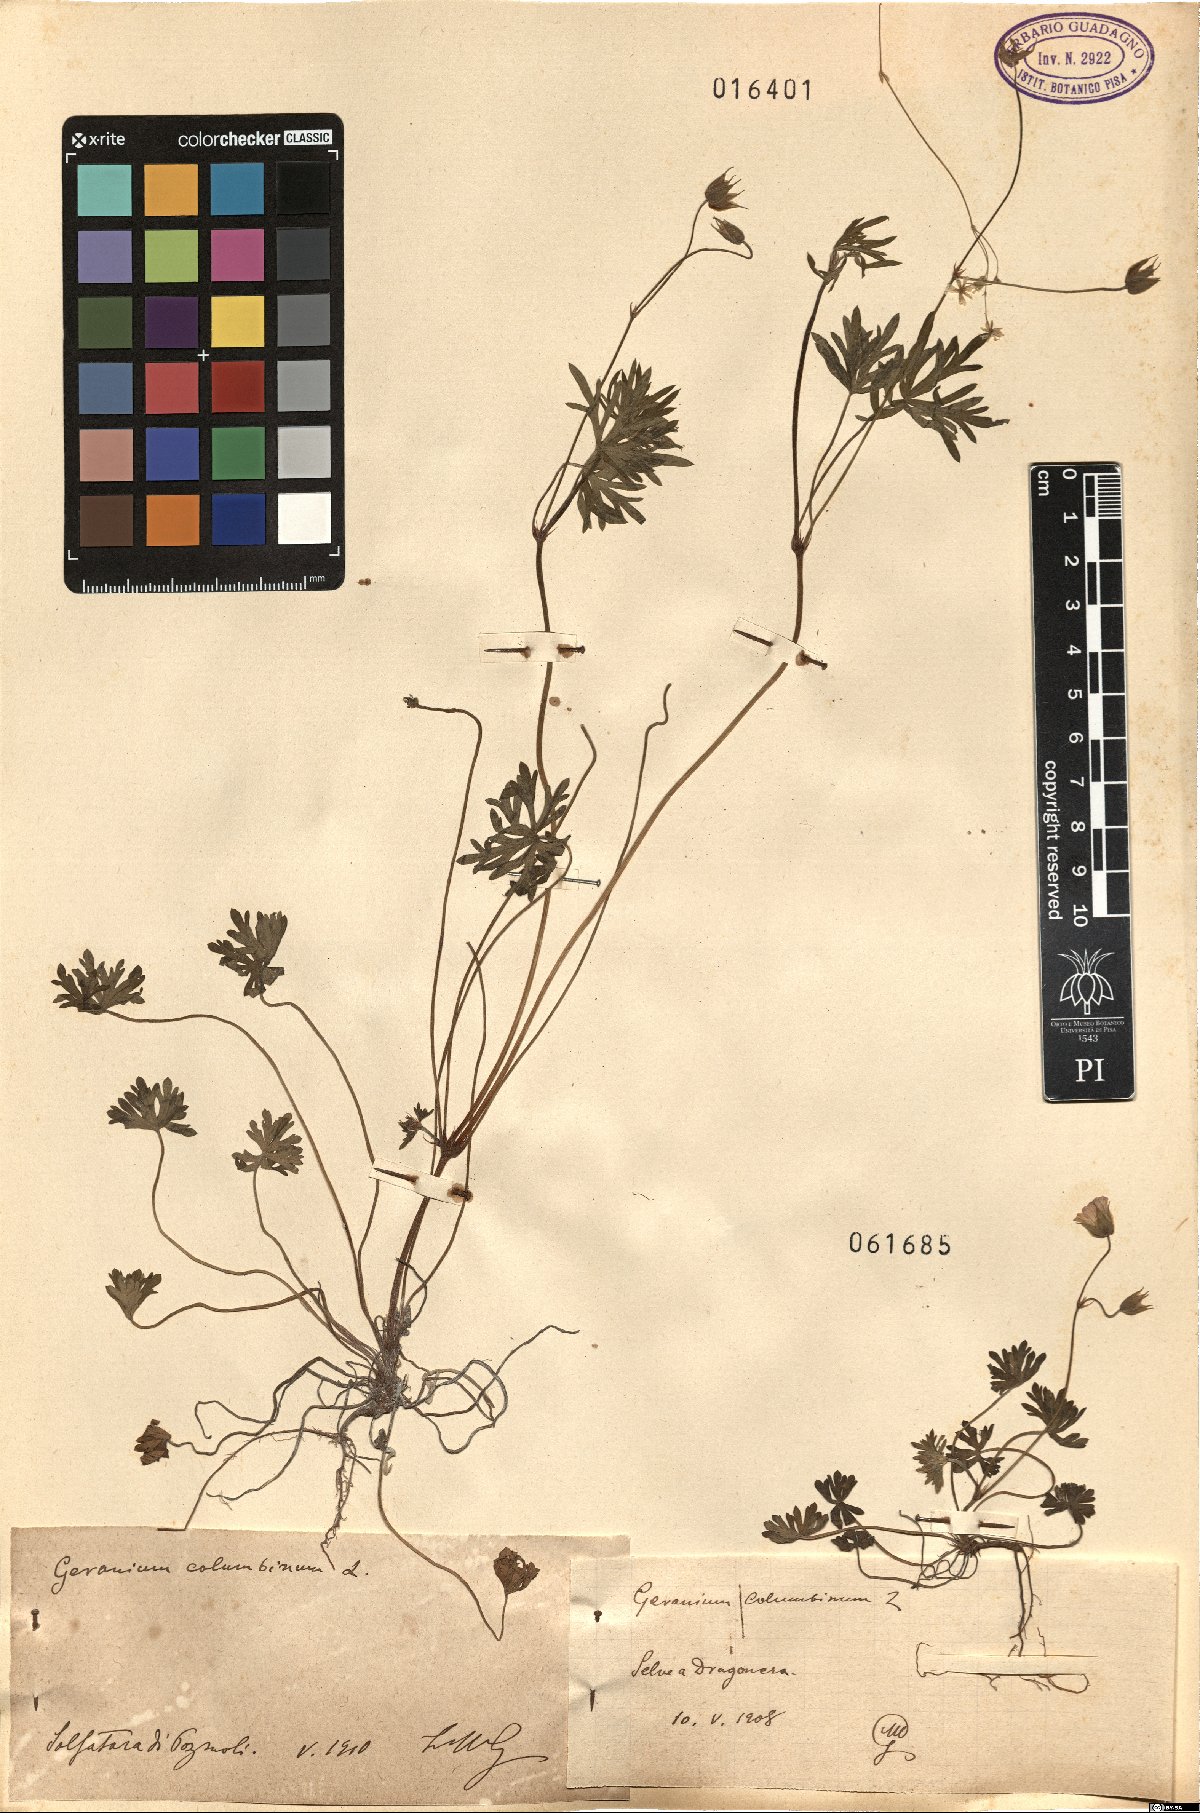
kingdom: Plantae
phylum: Tracheophyta
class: Magnoliopsida
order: Geraniales
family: Geraniaceae
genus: Geranium
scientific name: Geranium columbinum
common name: Long-stalked crane's-bill
